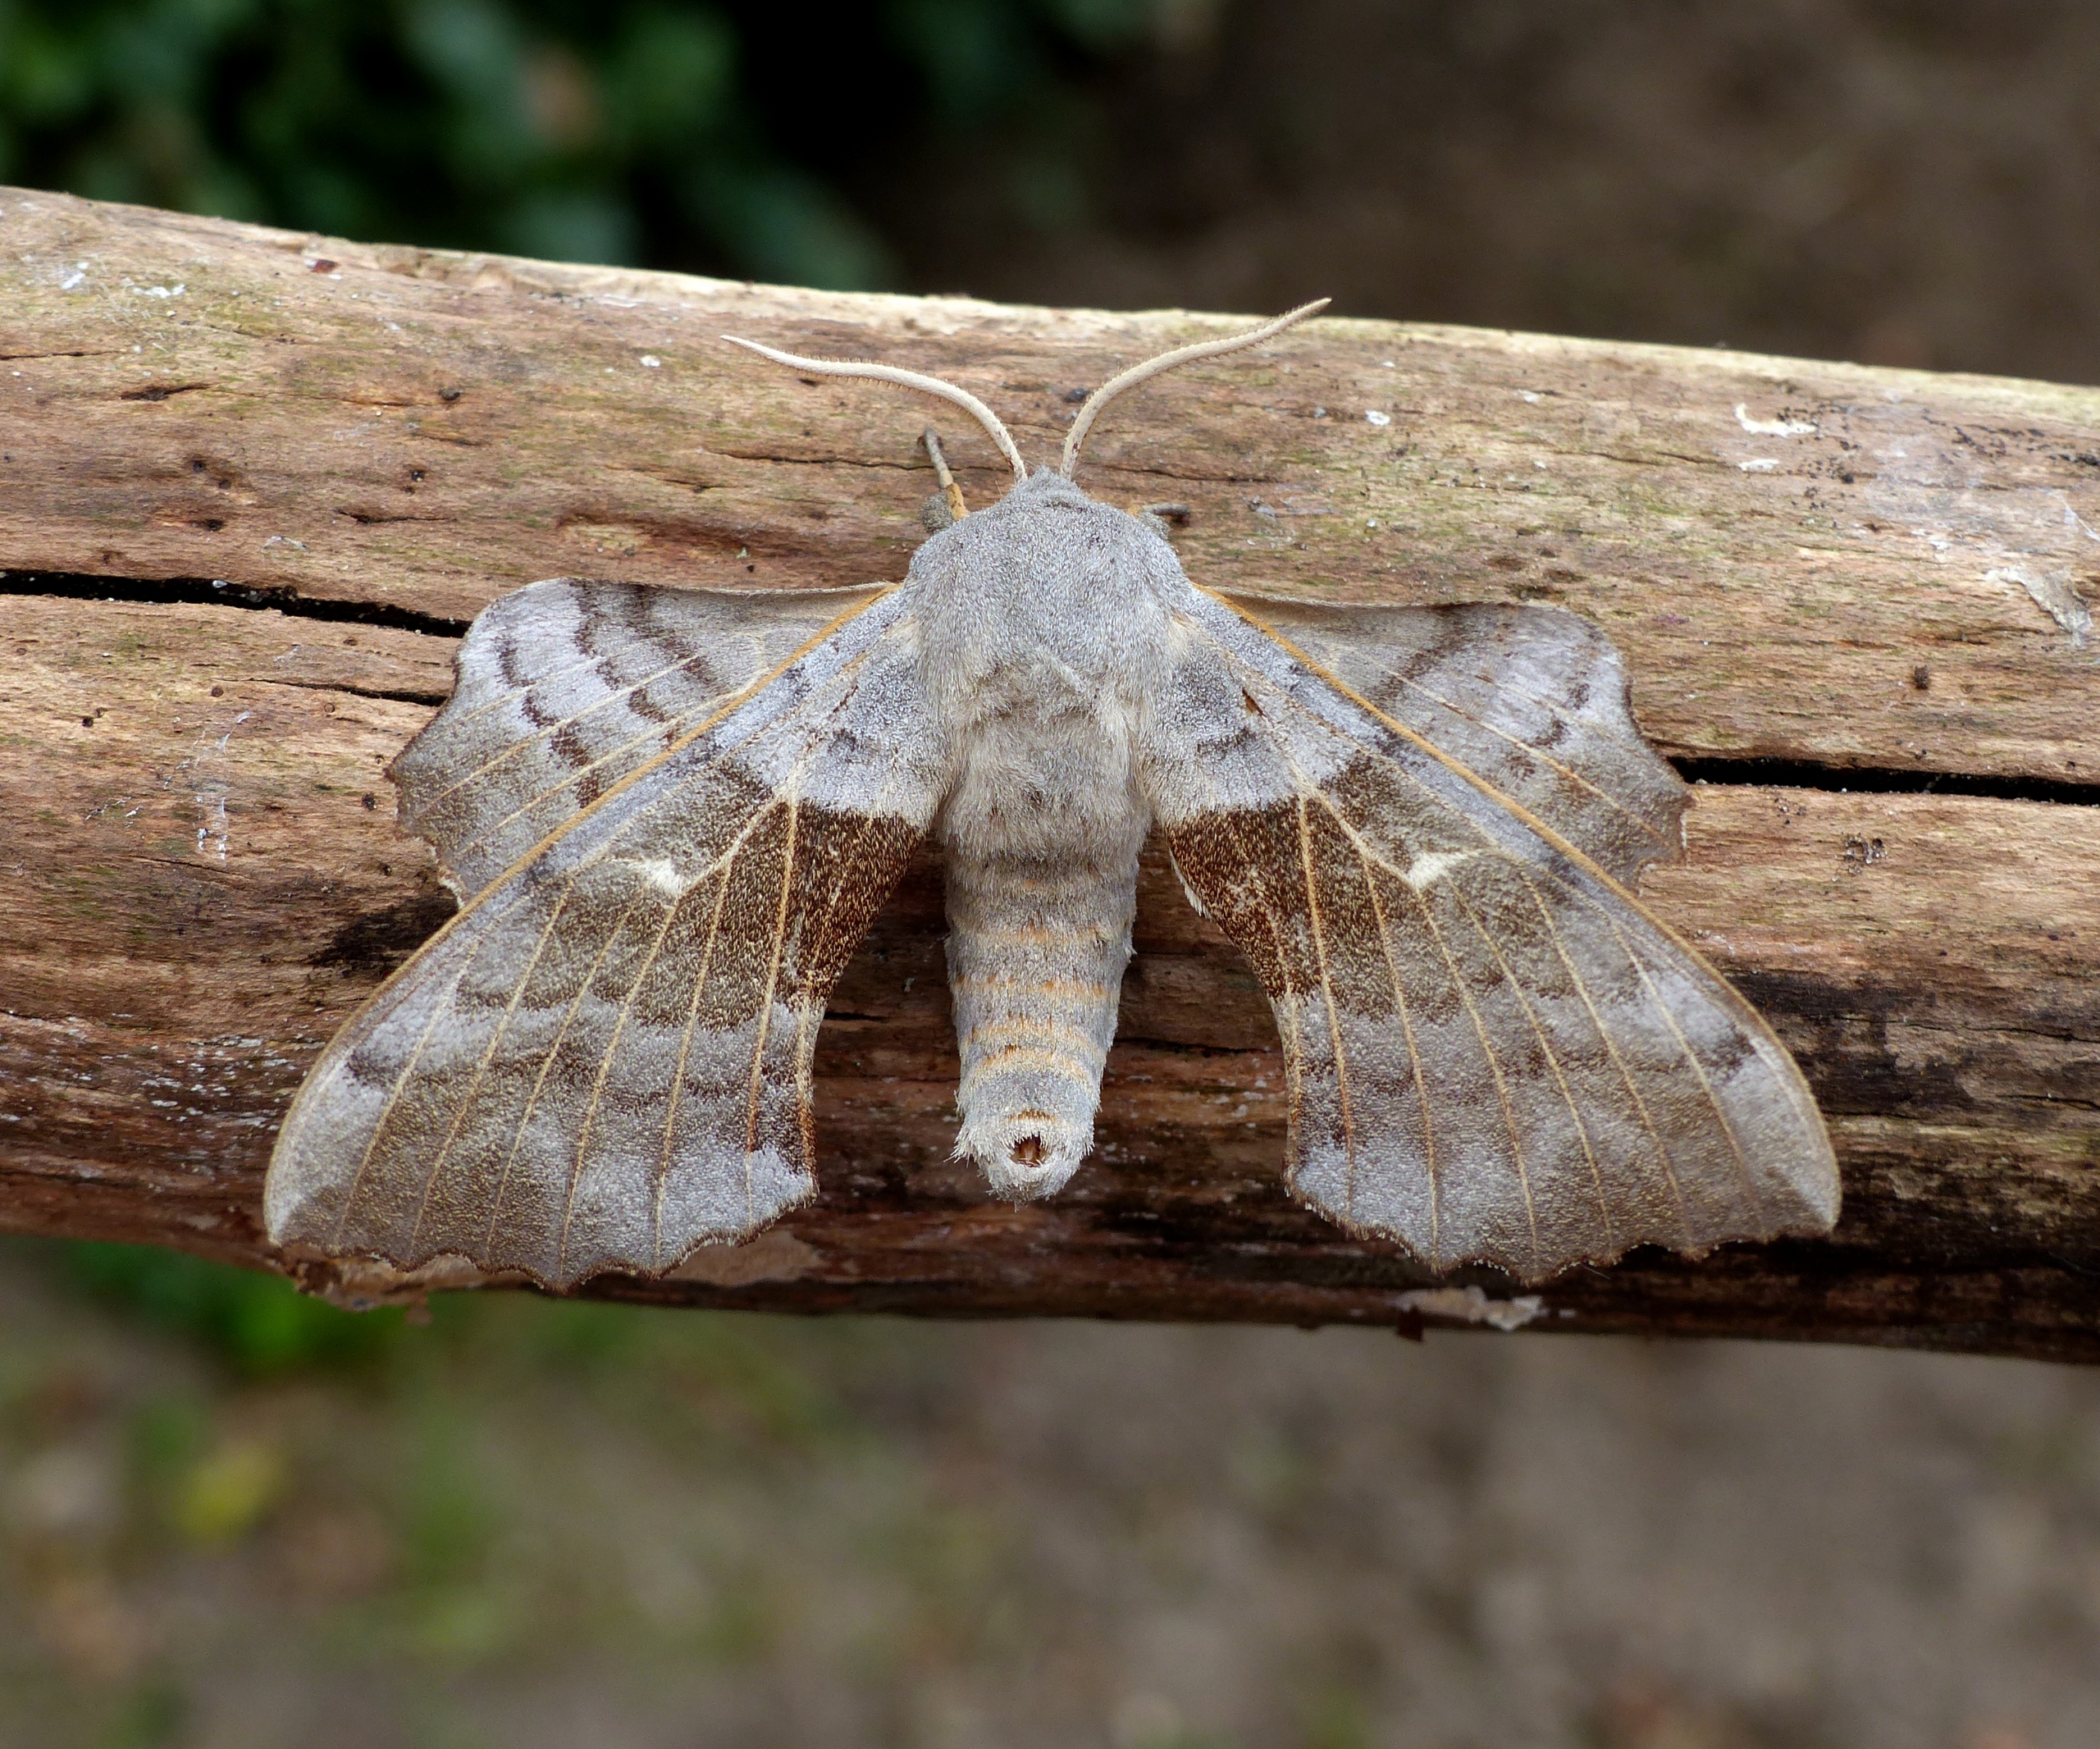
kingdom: Animalia
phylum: Arthropoda
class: Insecta
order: Lepidoptera
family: Sphingidae
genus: Laothoe
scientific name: Laothoe populi
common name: Poppelsværmer
